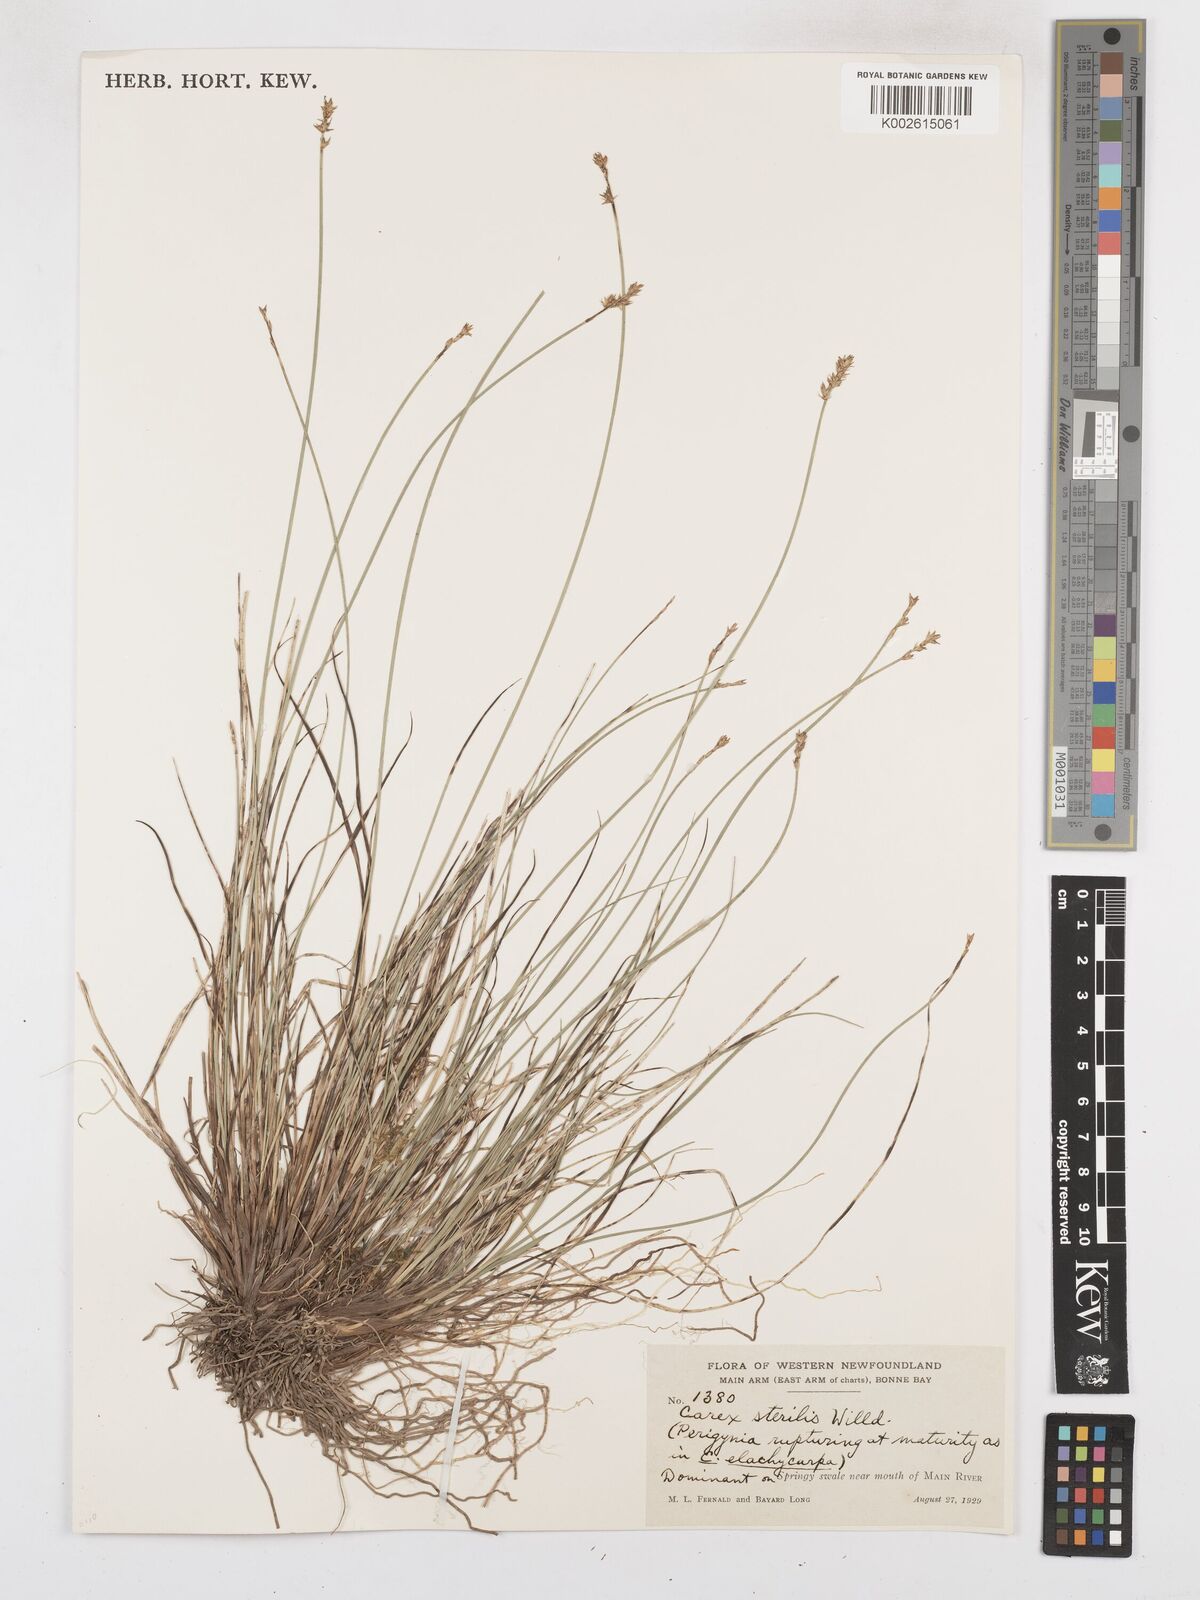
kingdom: Plantae
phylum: Tracheophyta
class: Liliopsida
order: Poales
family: Cyperaceae
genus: Carex
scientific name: Carex sterilis
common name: Dioecious sedge
